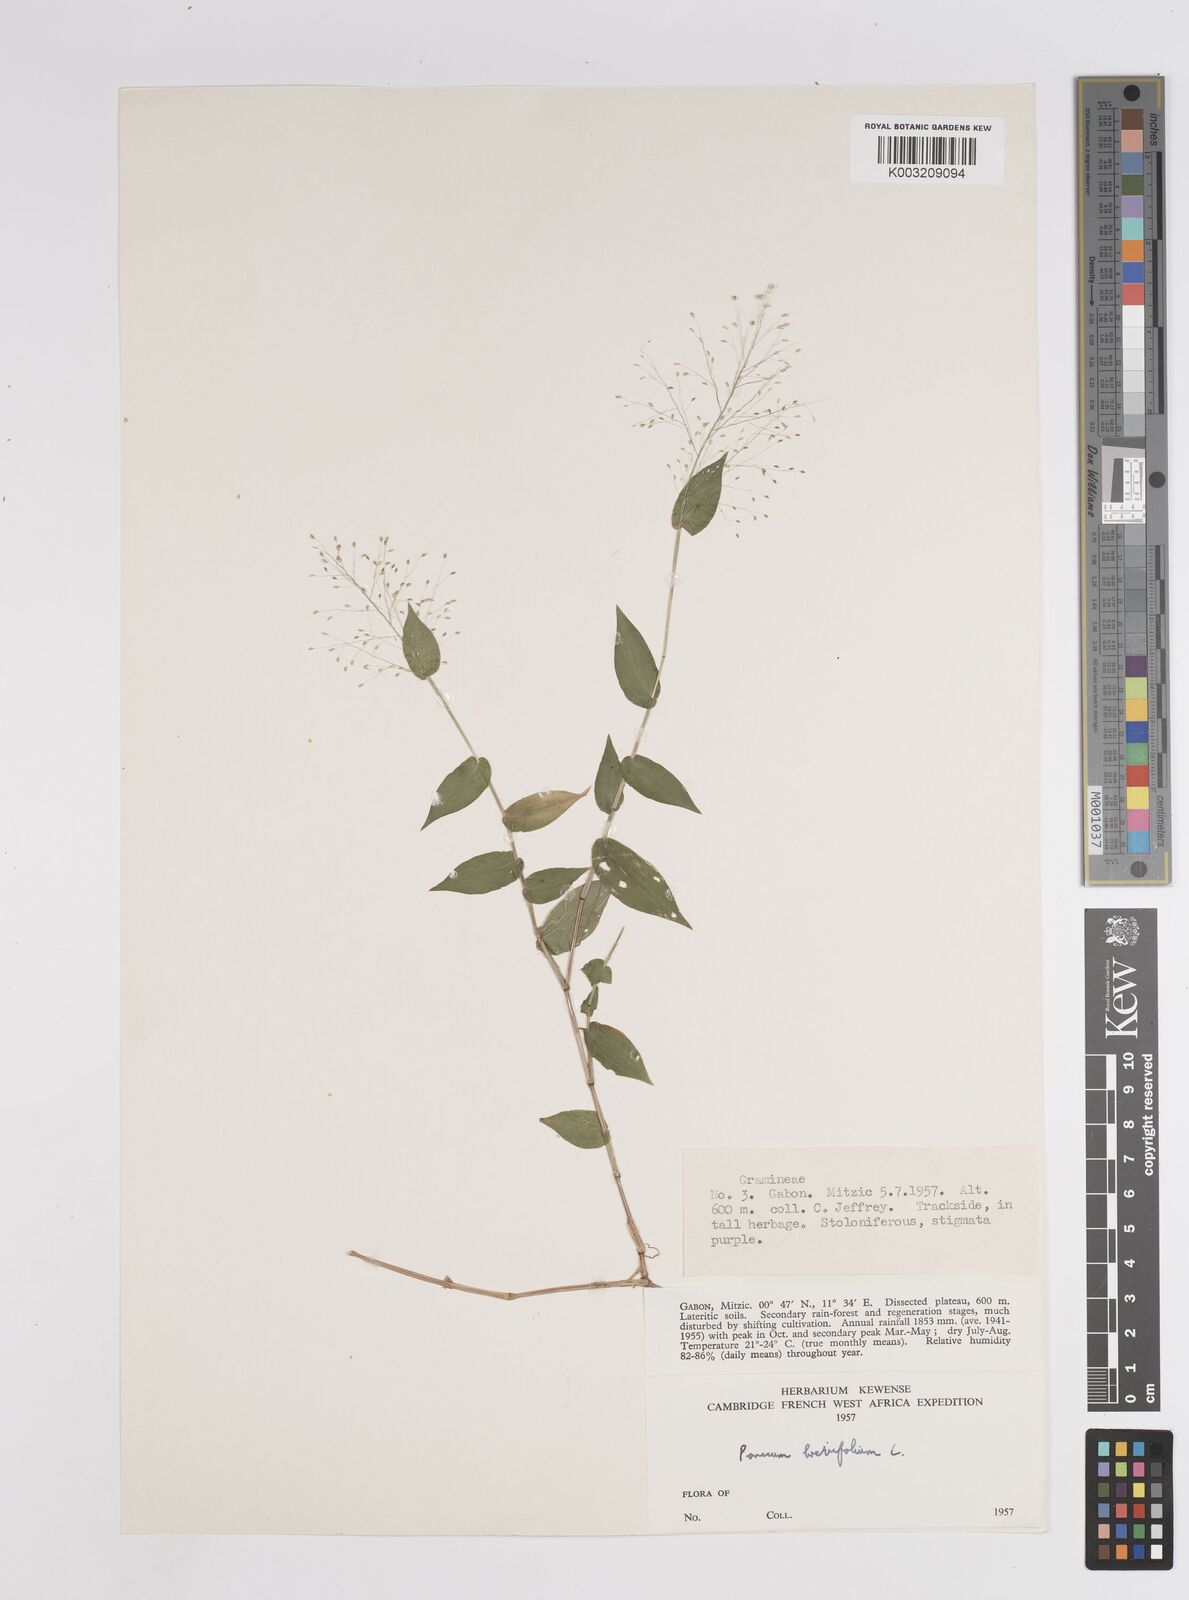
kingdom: Plantae
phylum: Tracheophyta
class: Liliopsida
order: Poales
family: Poaceae
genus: Panicum
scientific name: Panicum brevifolium
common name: Shortleaf panic grass
